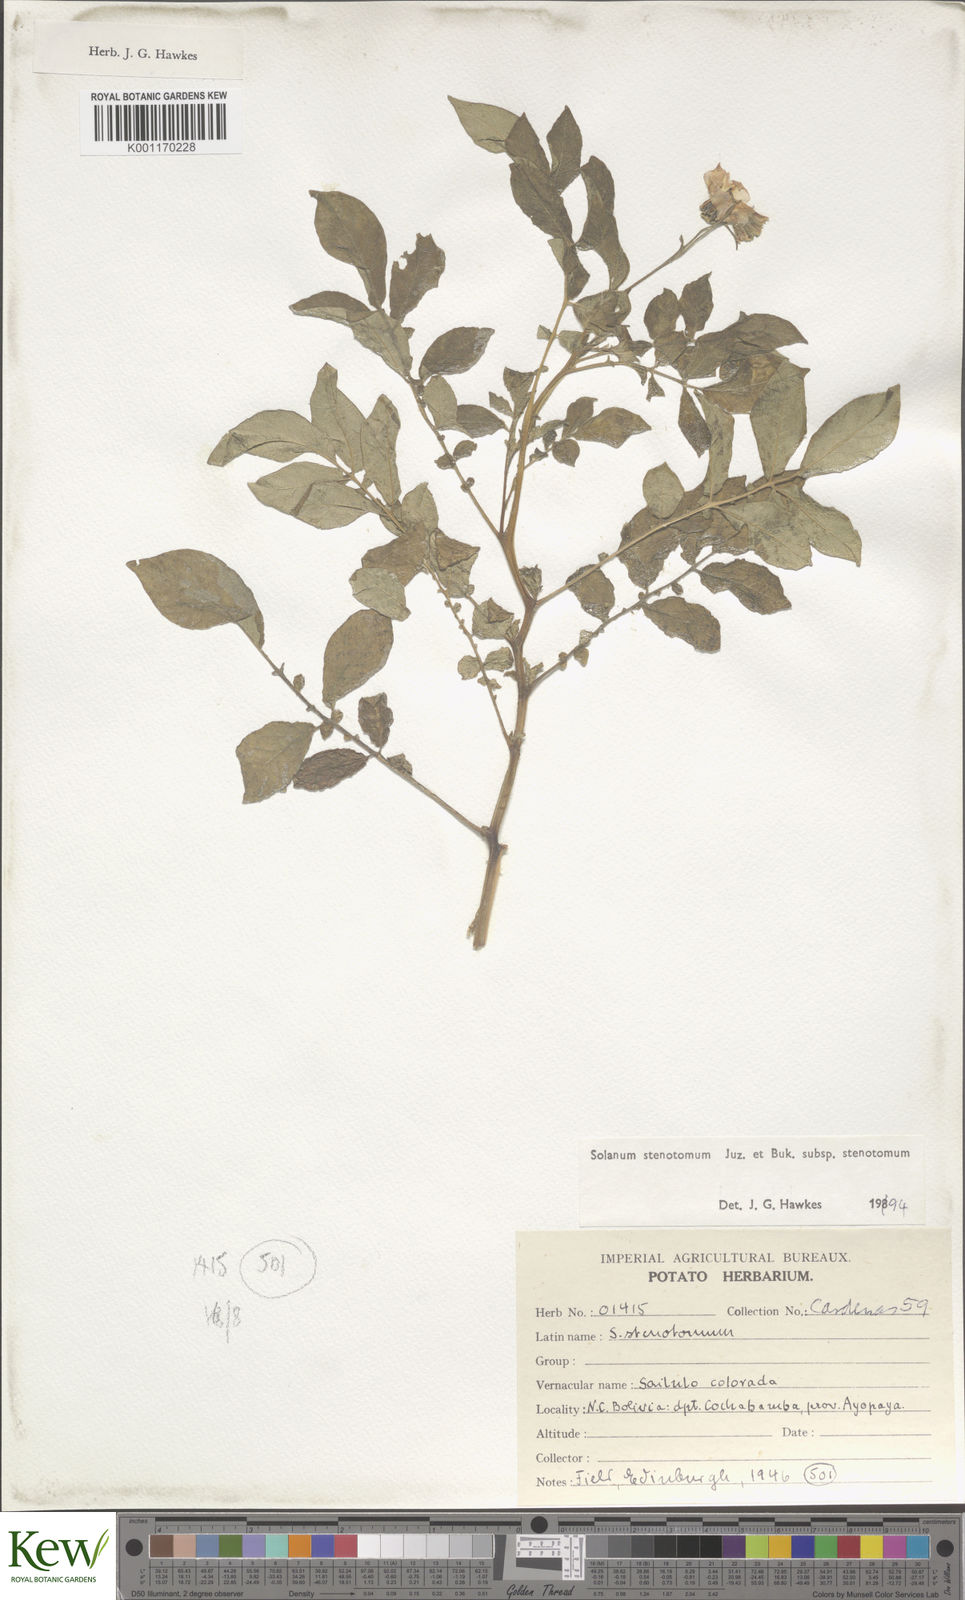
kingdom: Plantae
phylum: Tracheophyta
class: Magnoliopsida
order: Solanales
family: Solanaceae
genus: Solanum
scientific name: Solanum tuberosum
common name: Potato
